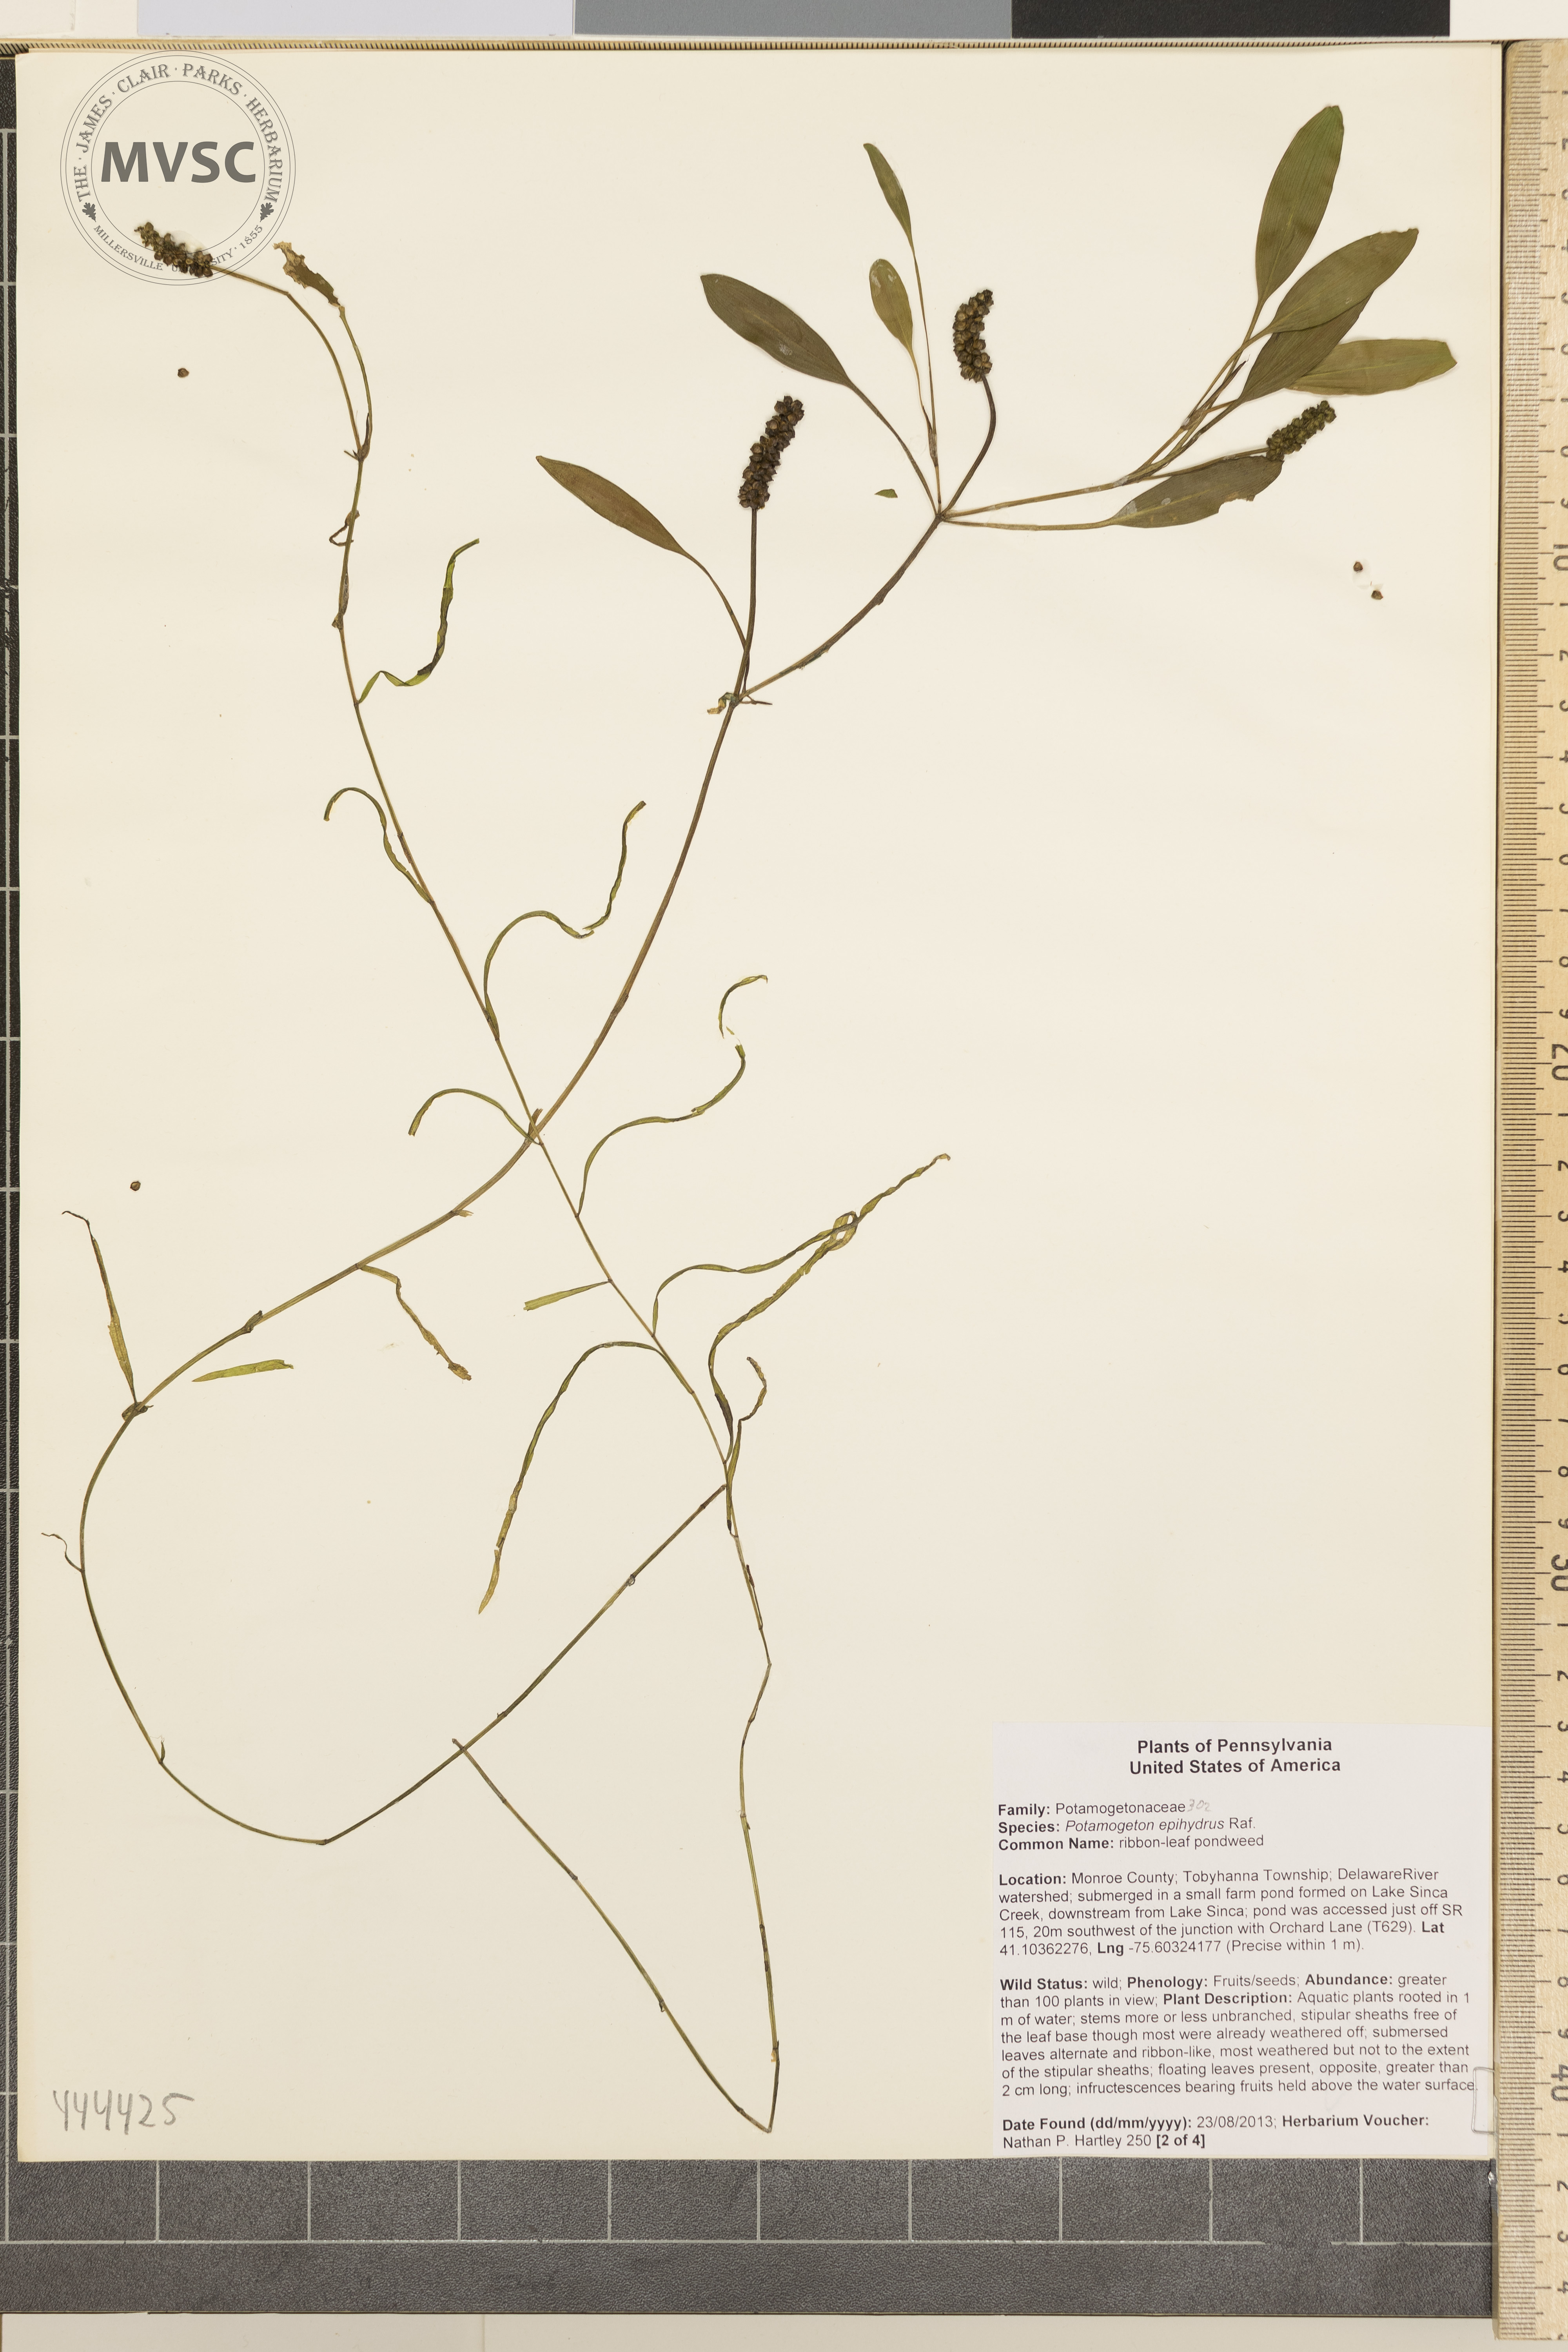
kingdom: Plantae
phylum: Tracheophyta
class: Liliopsida
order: Alismatales
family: Potamogetonaceae
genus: Potamogeton
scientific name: Potamogeton epihydrus
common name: American pondweed
